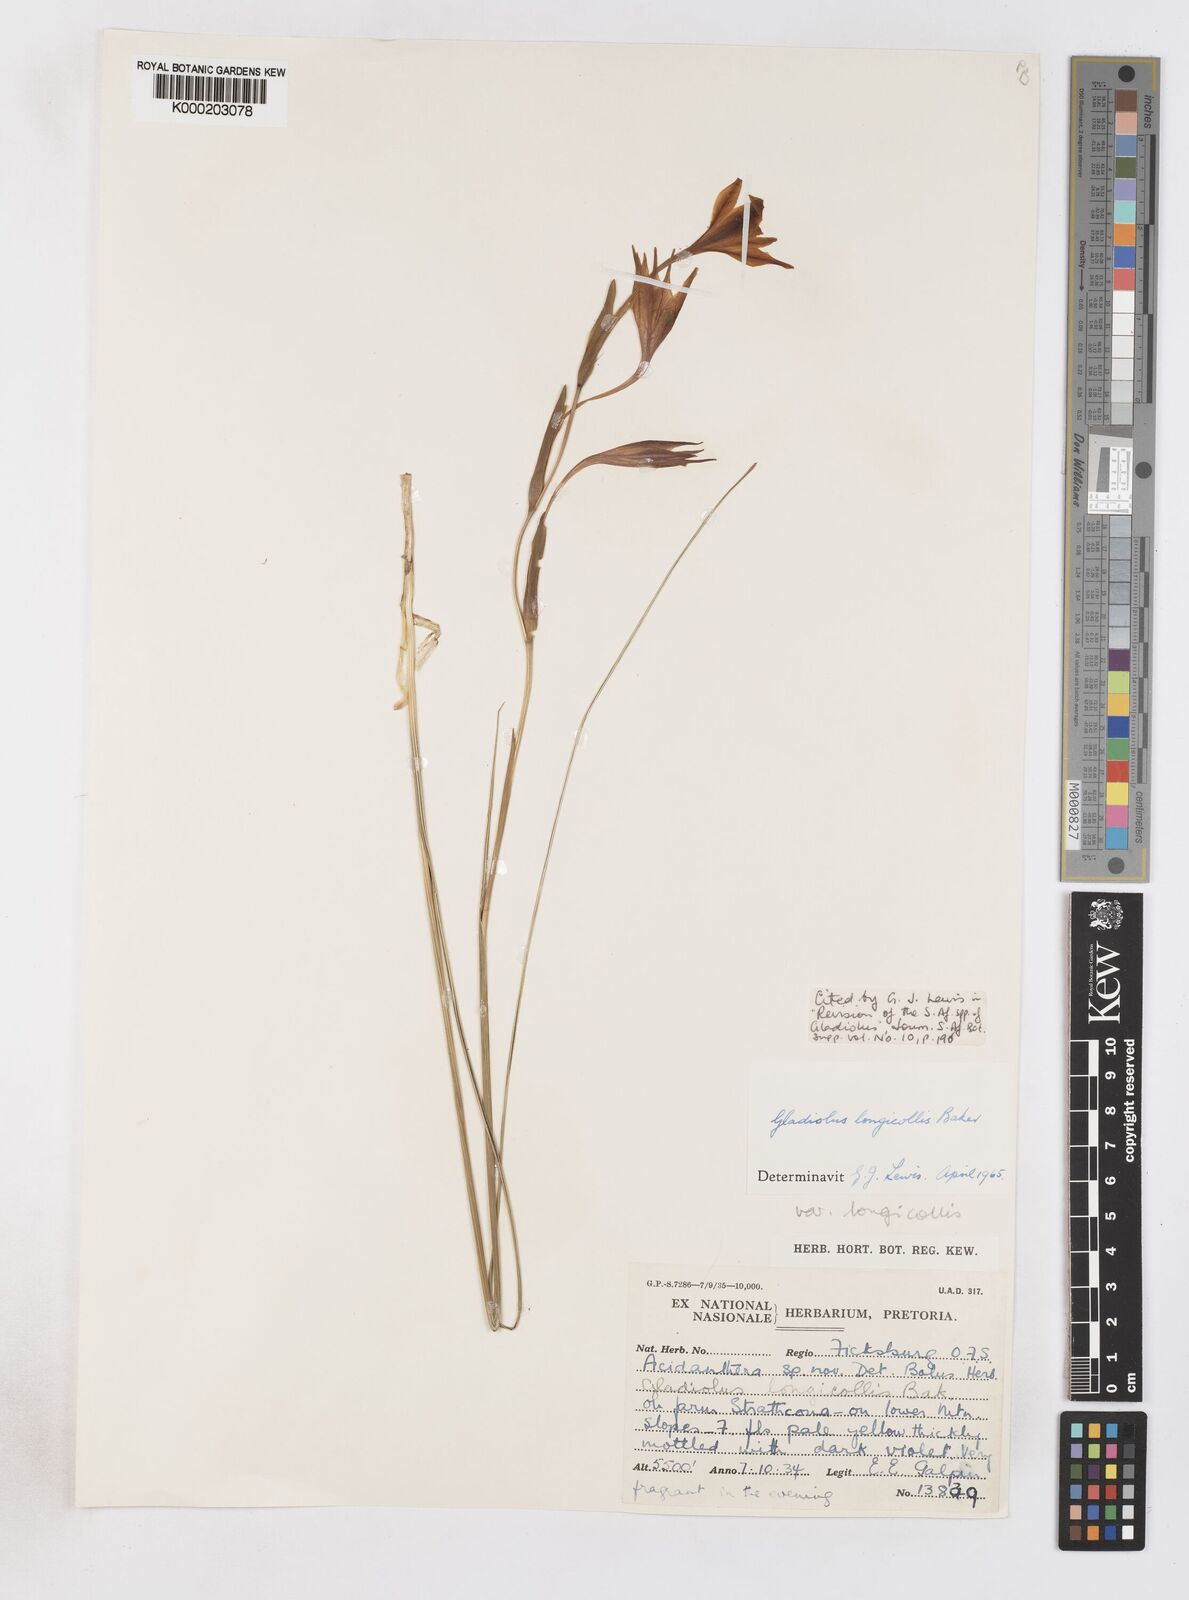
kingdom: Plantae
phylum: Tracheophyta
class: Liliopsida
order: Asparagales
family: Iridaceae
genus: Gladiolus
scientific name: Gladiolus longicollis
